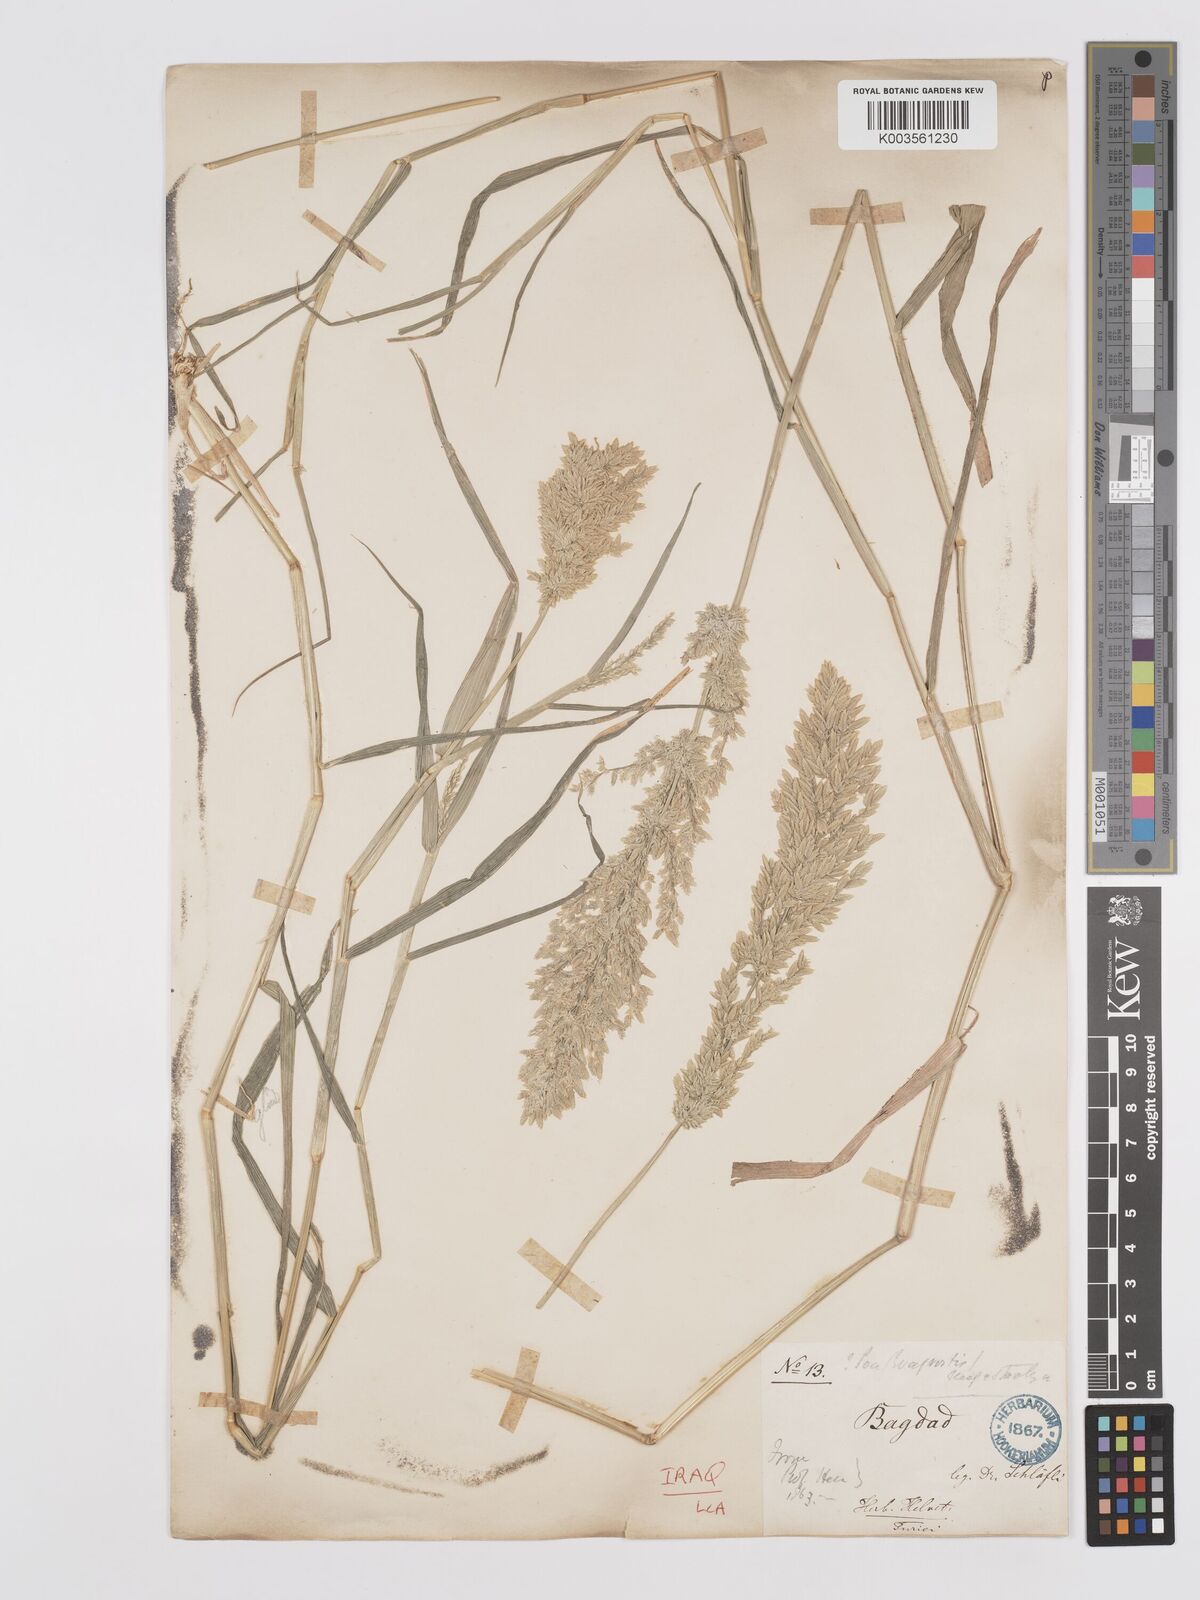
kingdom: Plantae
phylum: Tracheophyta
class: Liliopsida
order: Poales
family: Poaceae
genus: Eragrostis
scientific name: Eragrostis cilianensis
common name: Stinkgrass
